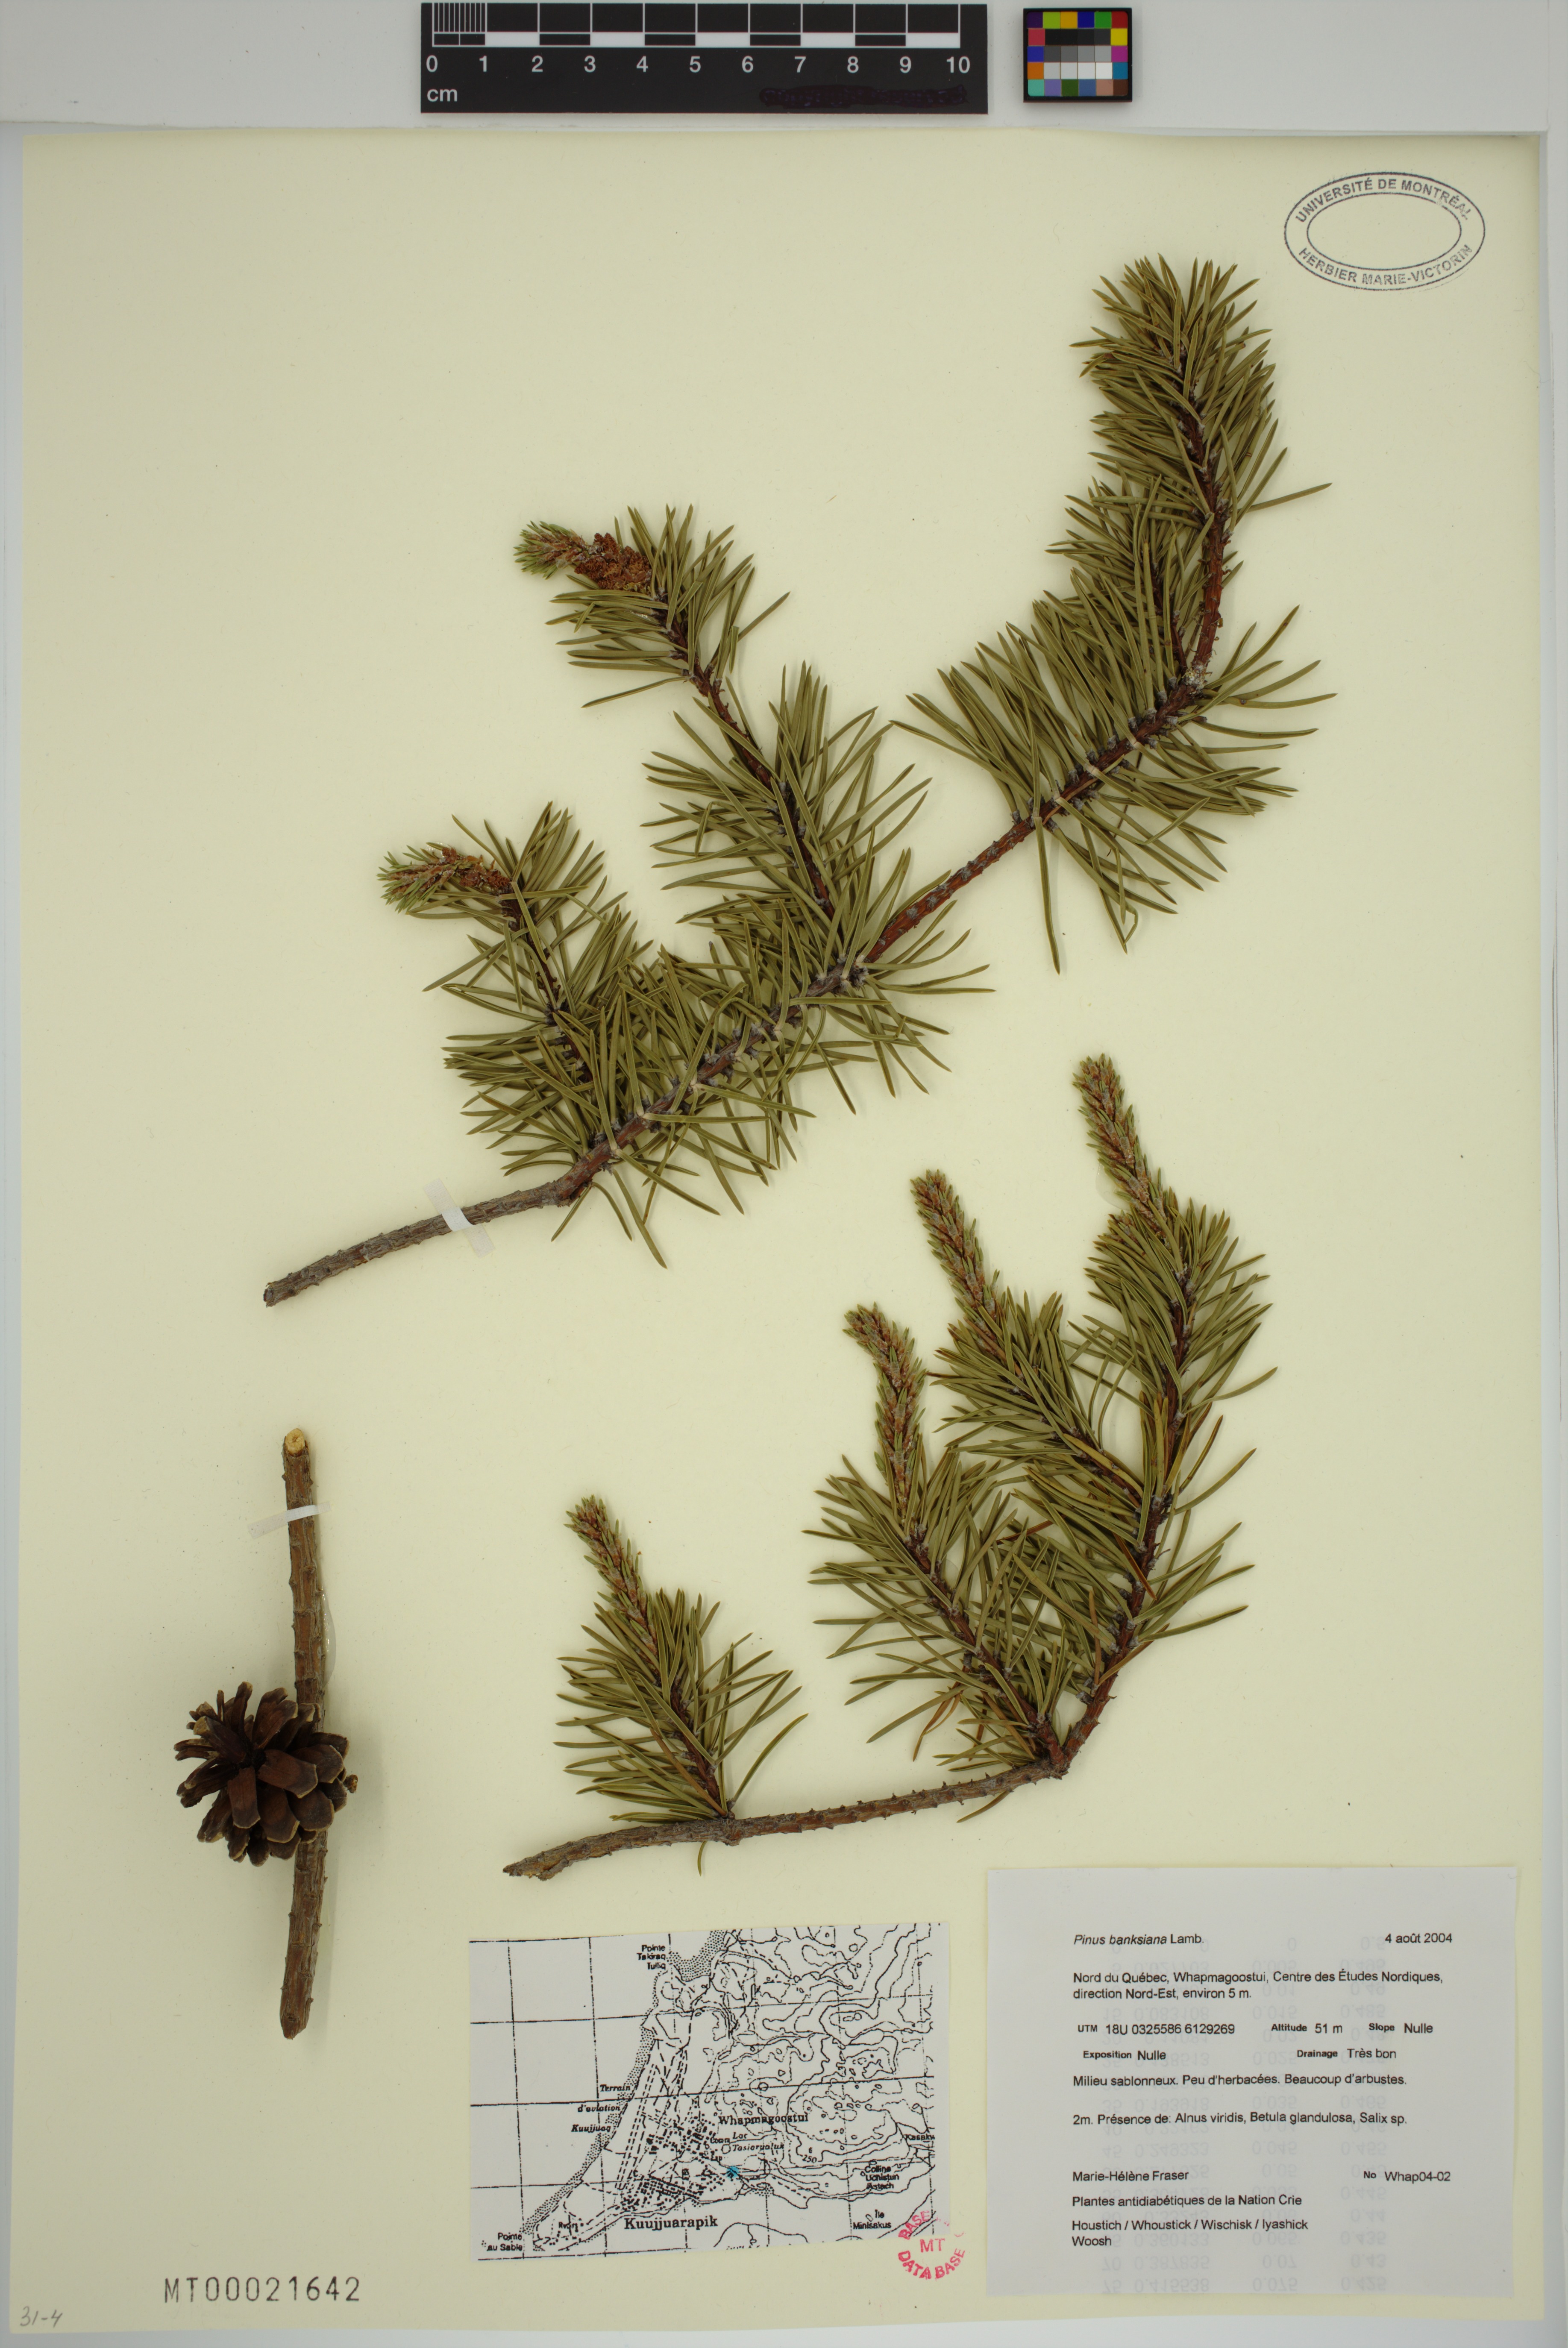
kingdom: Plantae
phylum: Tracheophyta
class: Pinopsida
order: Pinales
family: Pinaceae
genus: Pinus
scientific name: Pinus banksiana
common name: Jack pine
